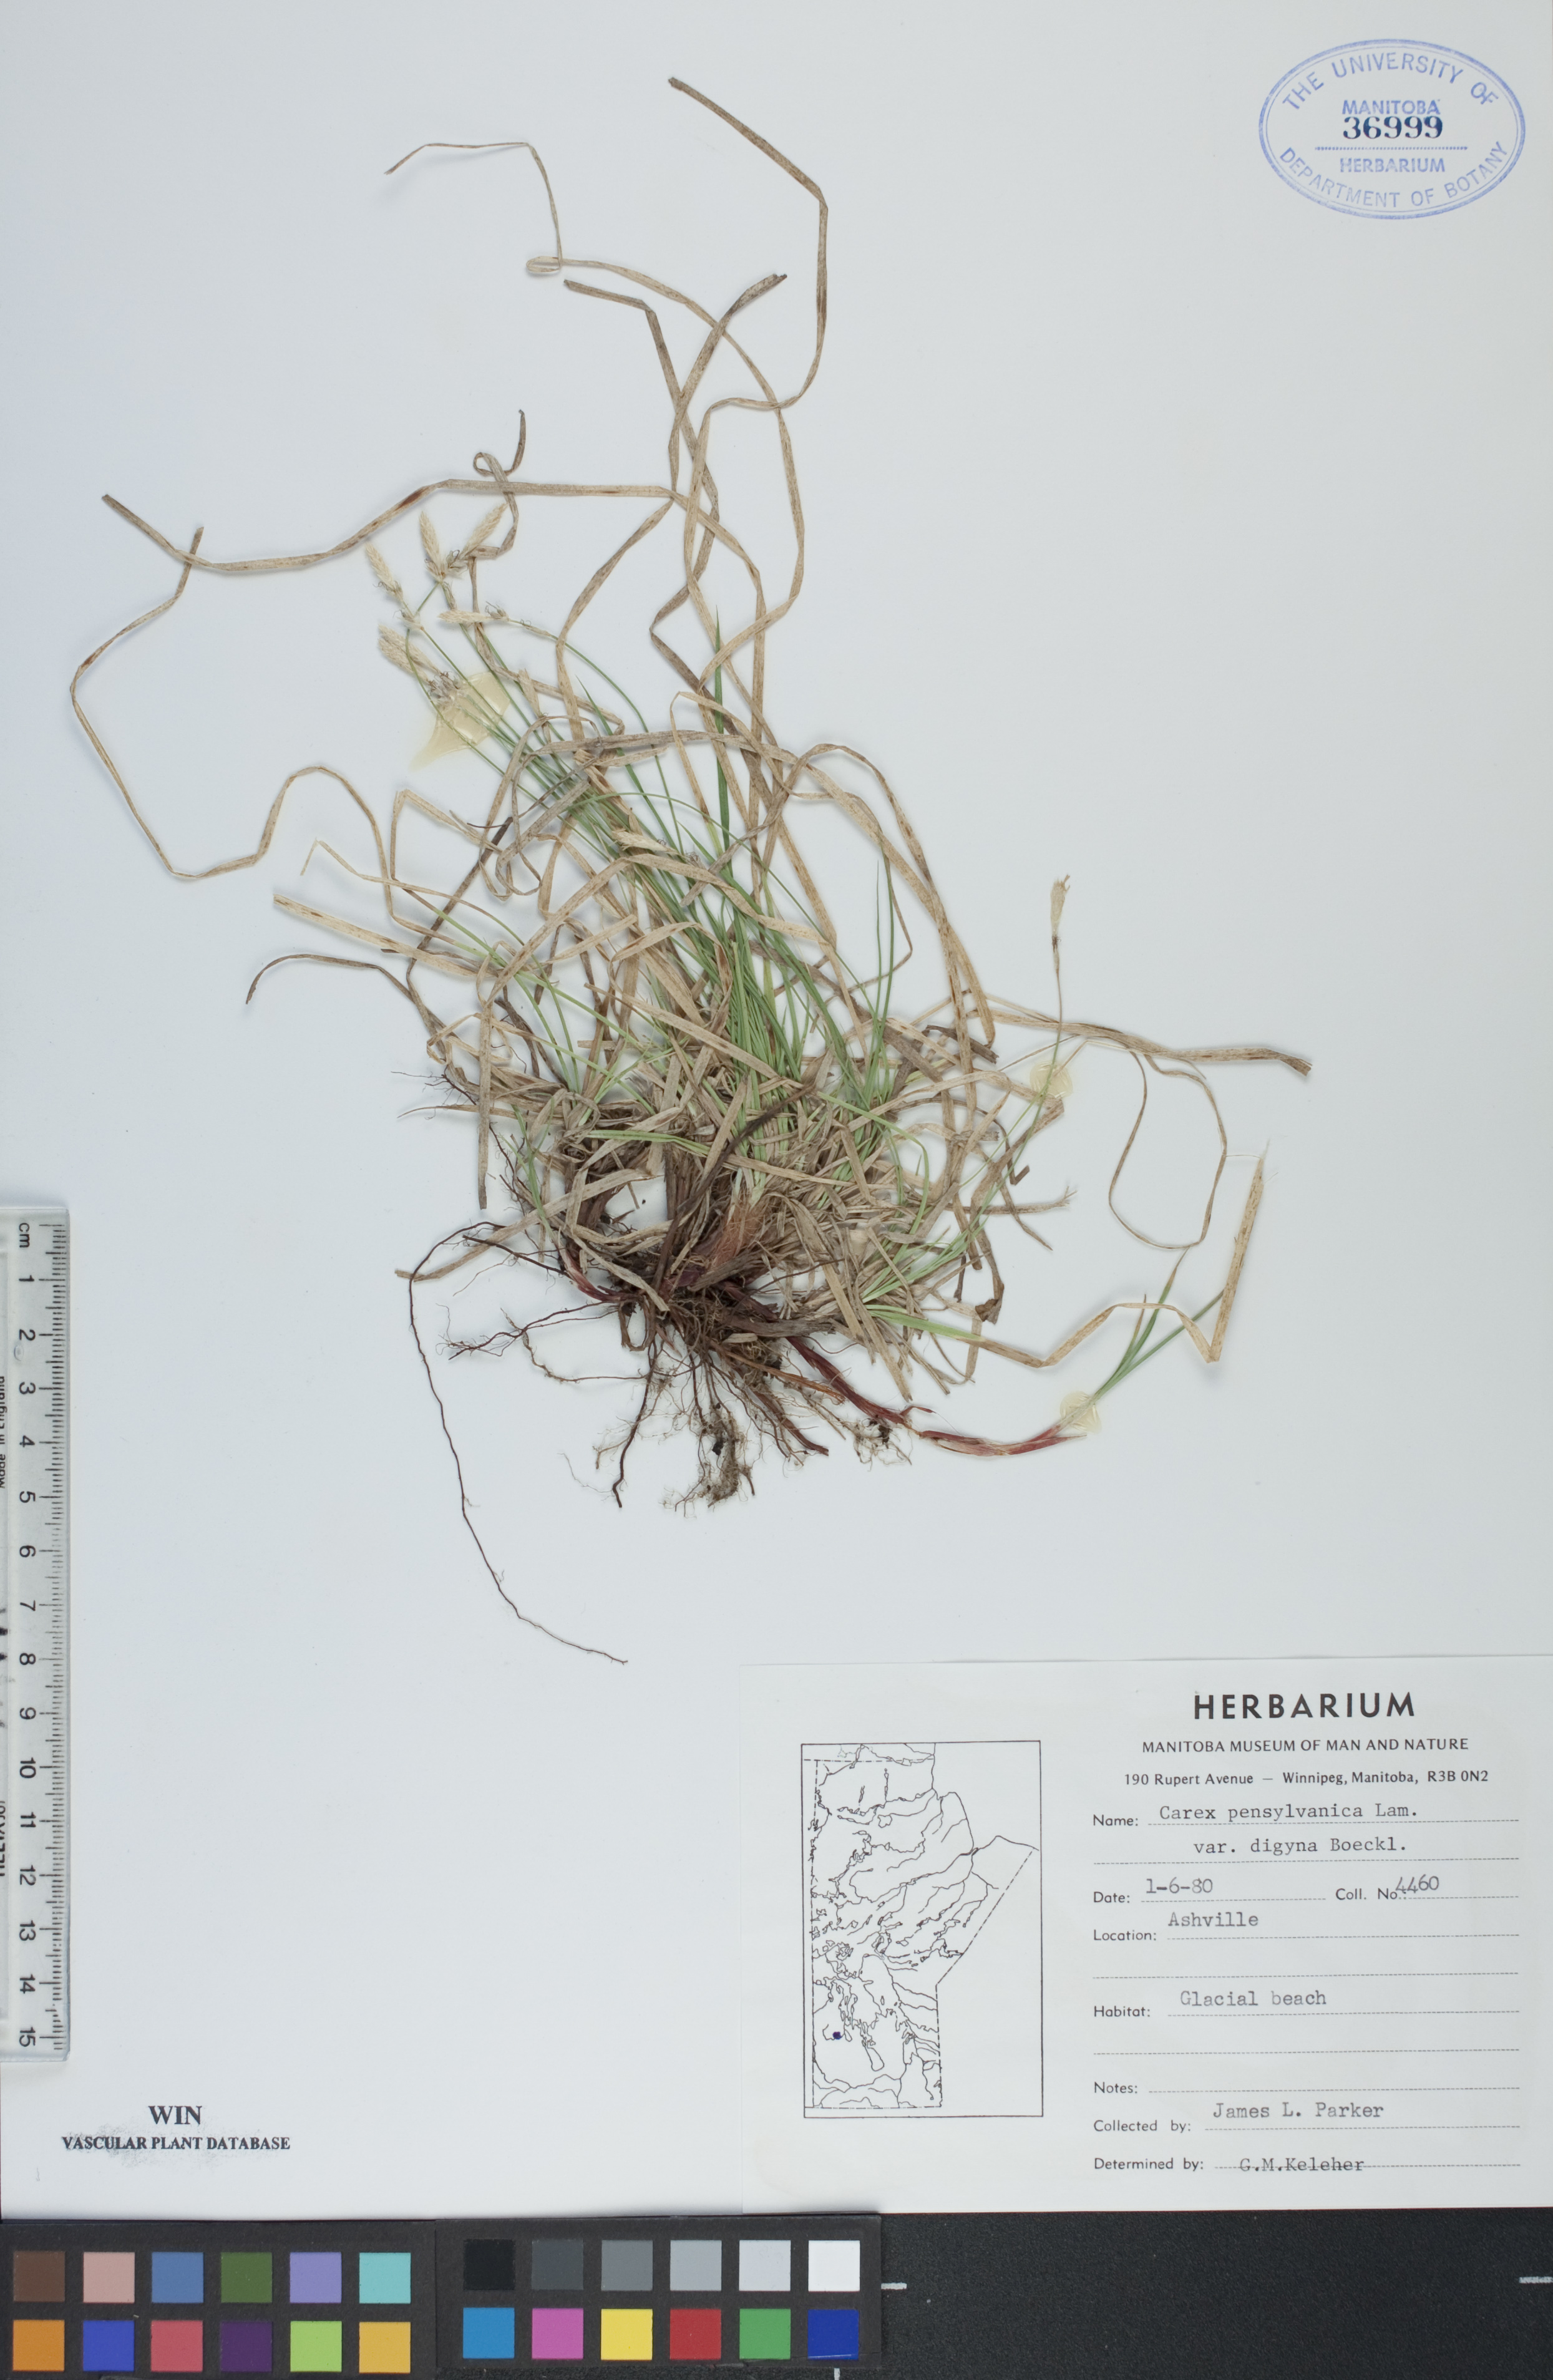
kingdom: Plantae
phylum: Tracheophyta
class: Liliopsida
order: Poales
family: Cyperaceae
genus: Carex
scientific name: Carex pensylvanica
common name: Common oak sedge
